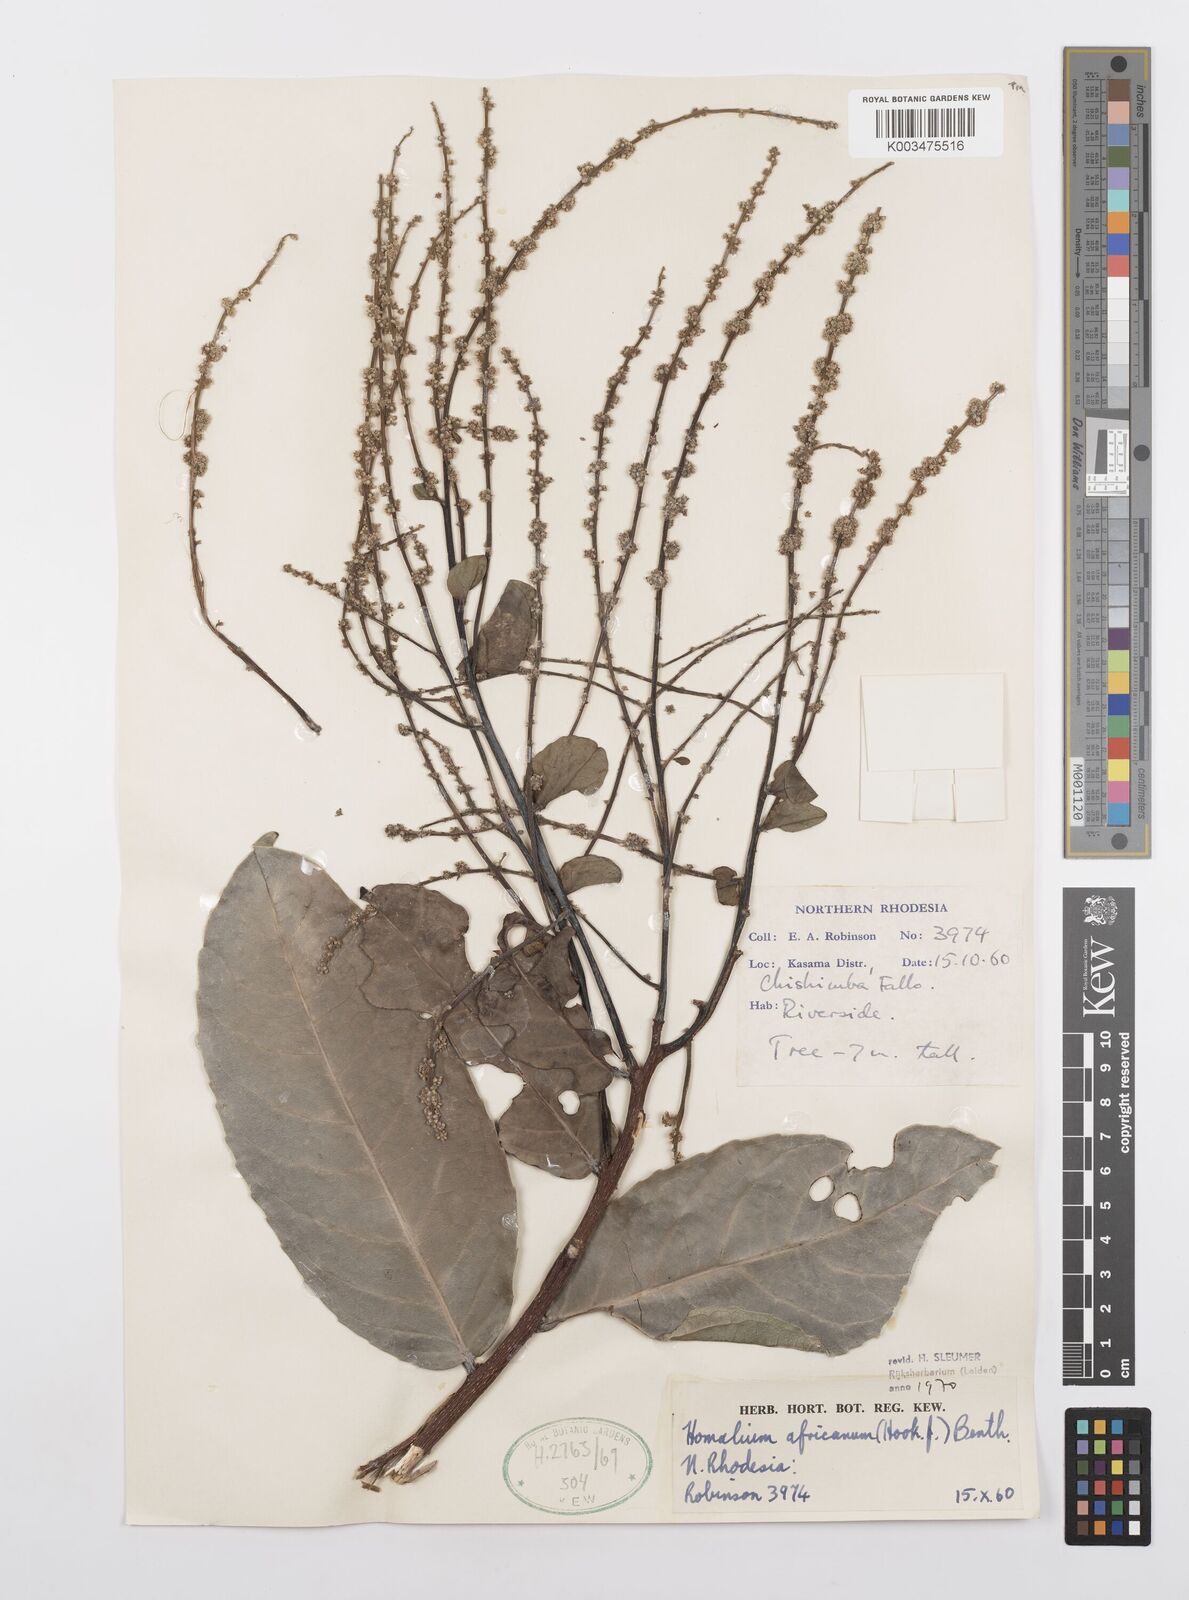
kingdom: Plantae
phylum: Tracheophyta
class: Magnoliopsida
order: Malpighiales
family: Salicaceae
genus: Homalium
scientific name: Homalium africanum
